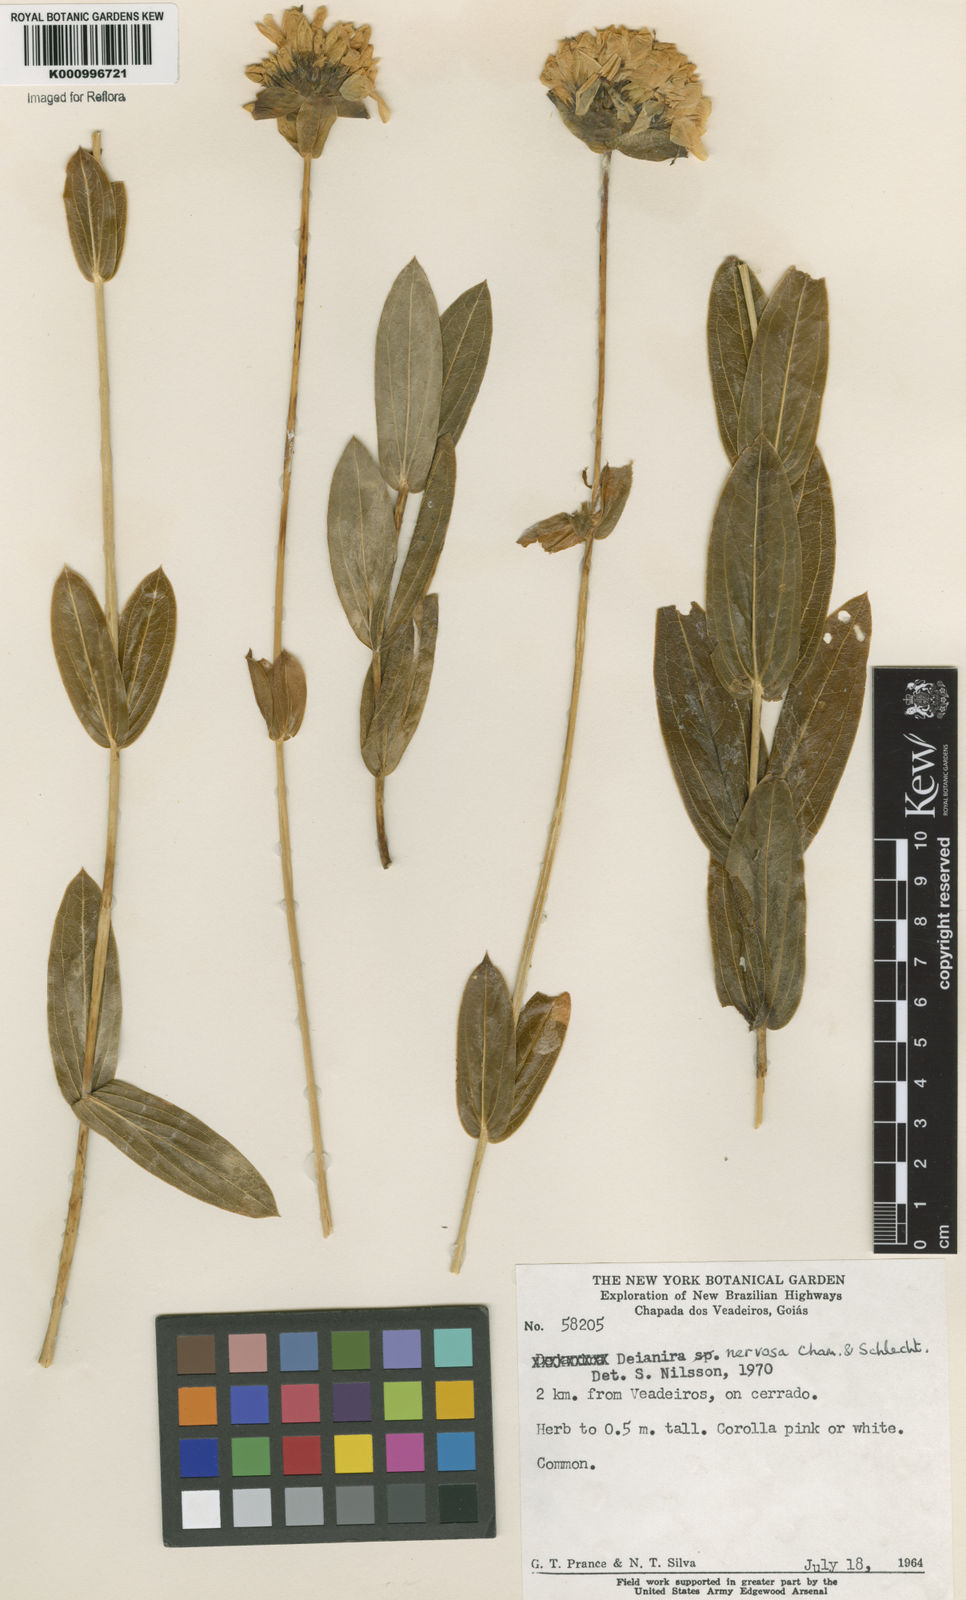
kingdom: Plantae
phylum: Tracheophyta
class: Magnoliopsida
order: Gentianales
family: Gentianaceae
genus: Deianira
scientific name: Deianira nervosa
